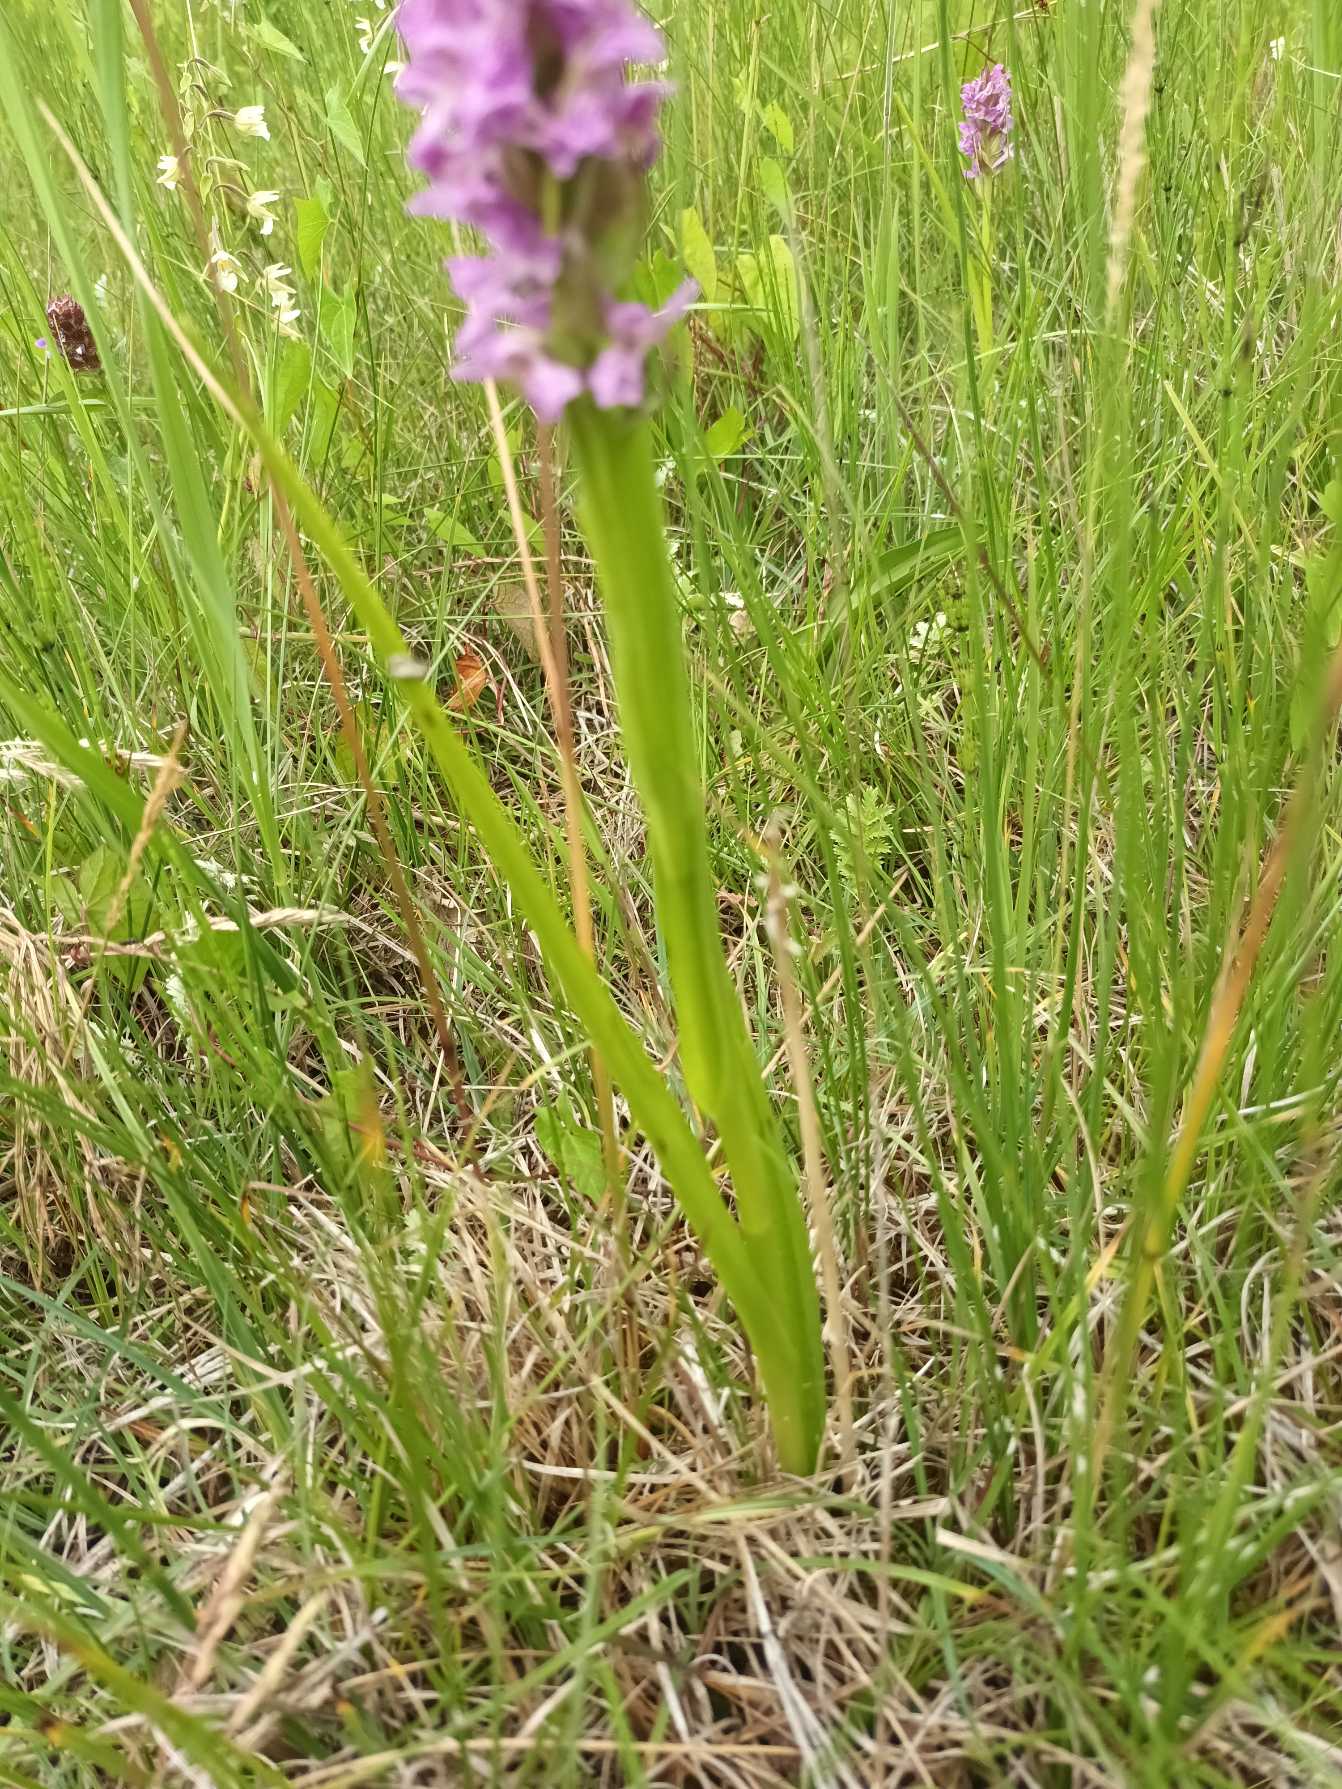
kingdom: Plantae
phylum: Tracheophyta
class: Liliopsida
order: Asparagales
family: Orchidaceae
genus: Dactylorhiza
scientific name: Dactylorhiza incarnata
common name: Kødfarvet gøgeurt
